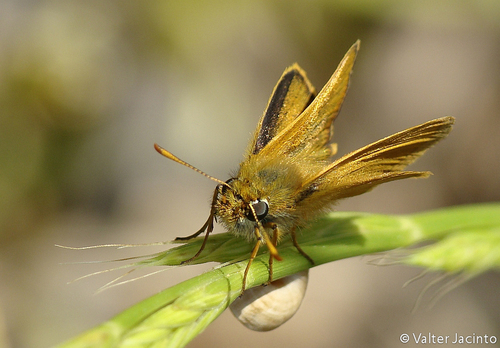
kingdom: Animalia
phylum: Arthropoda
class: Insecta
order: Lepidoptera
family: Hesperiidae
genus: Thymelicus
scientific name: Thymelicus acteon
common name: Lulworth skipper
